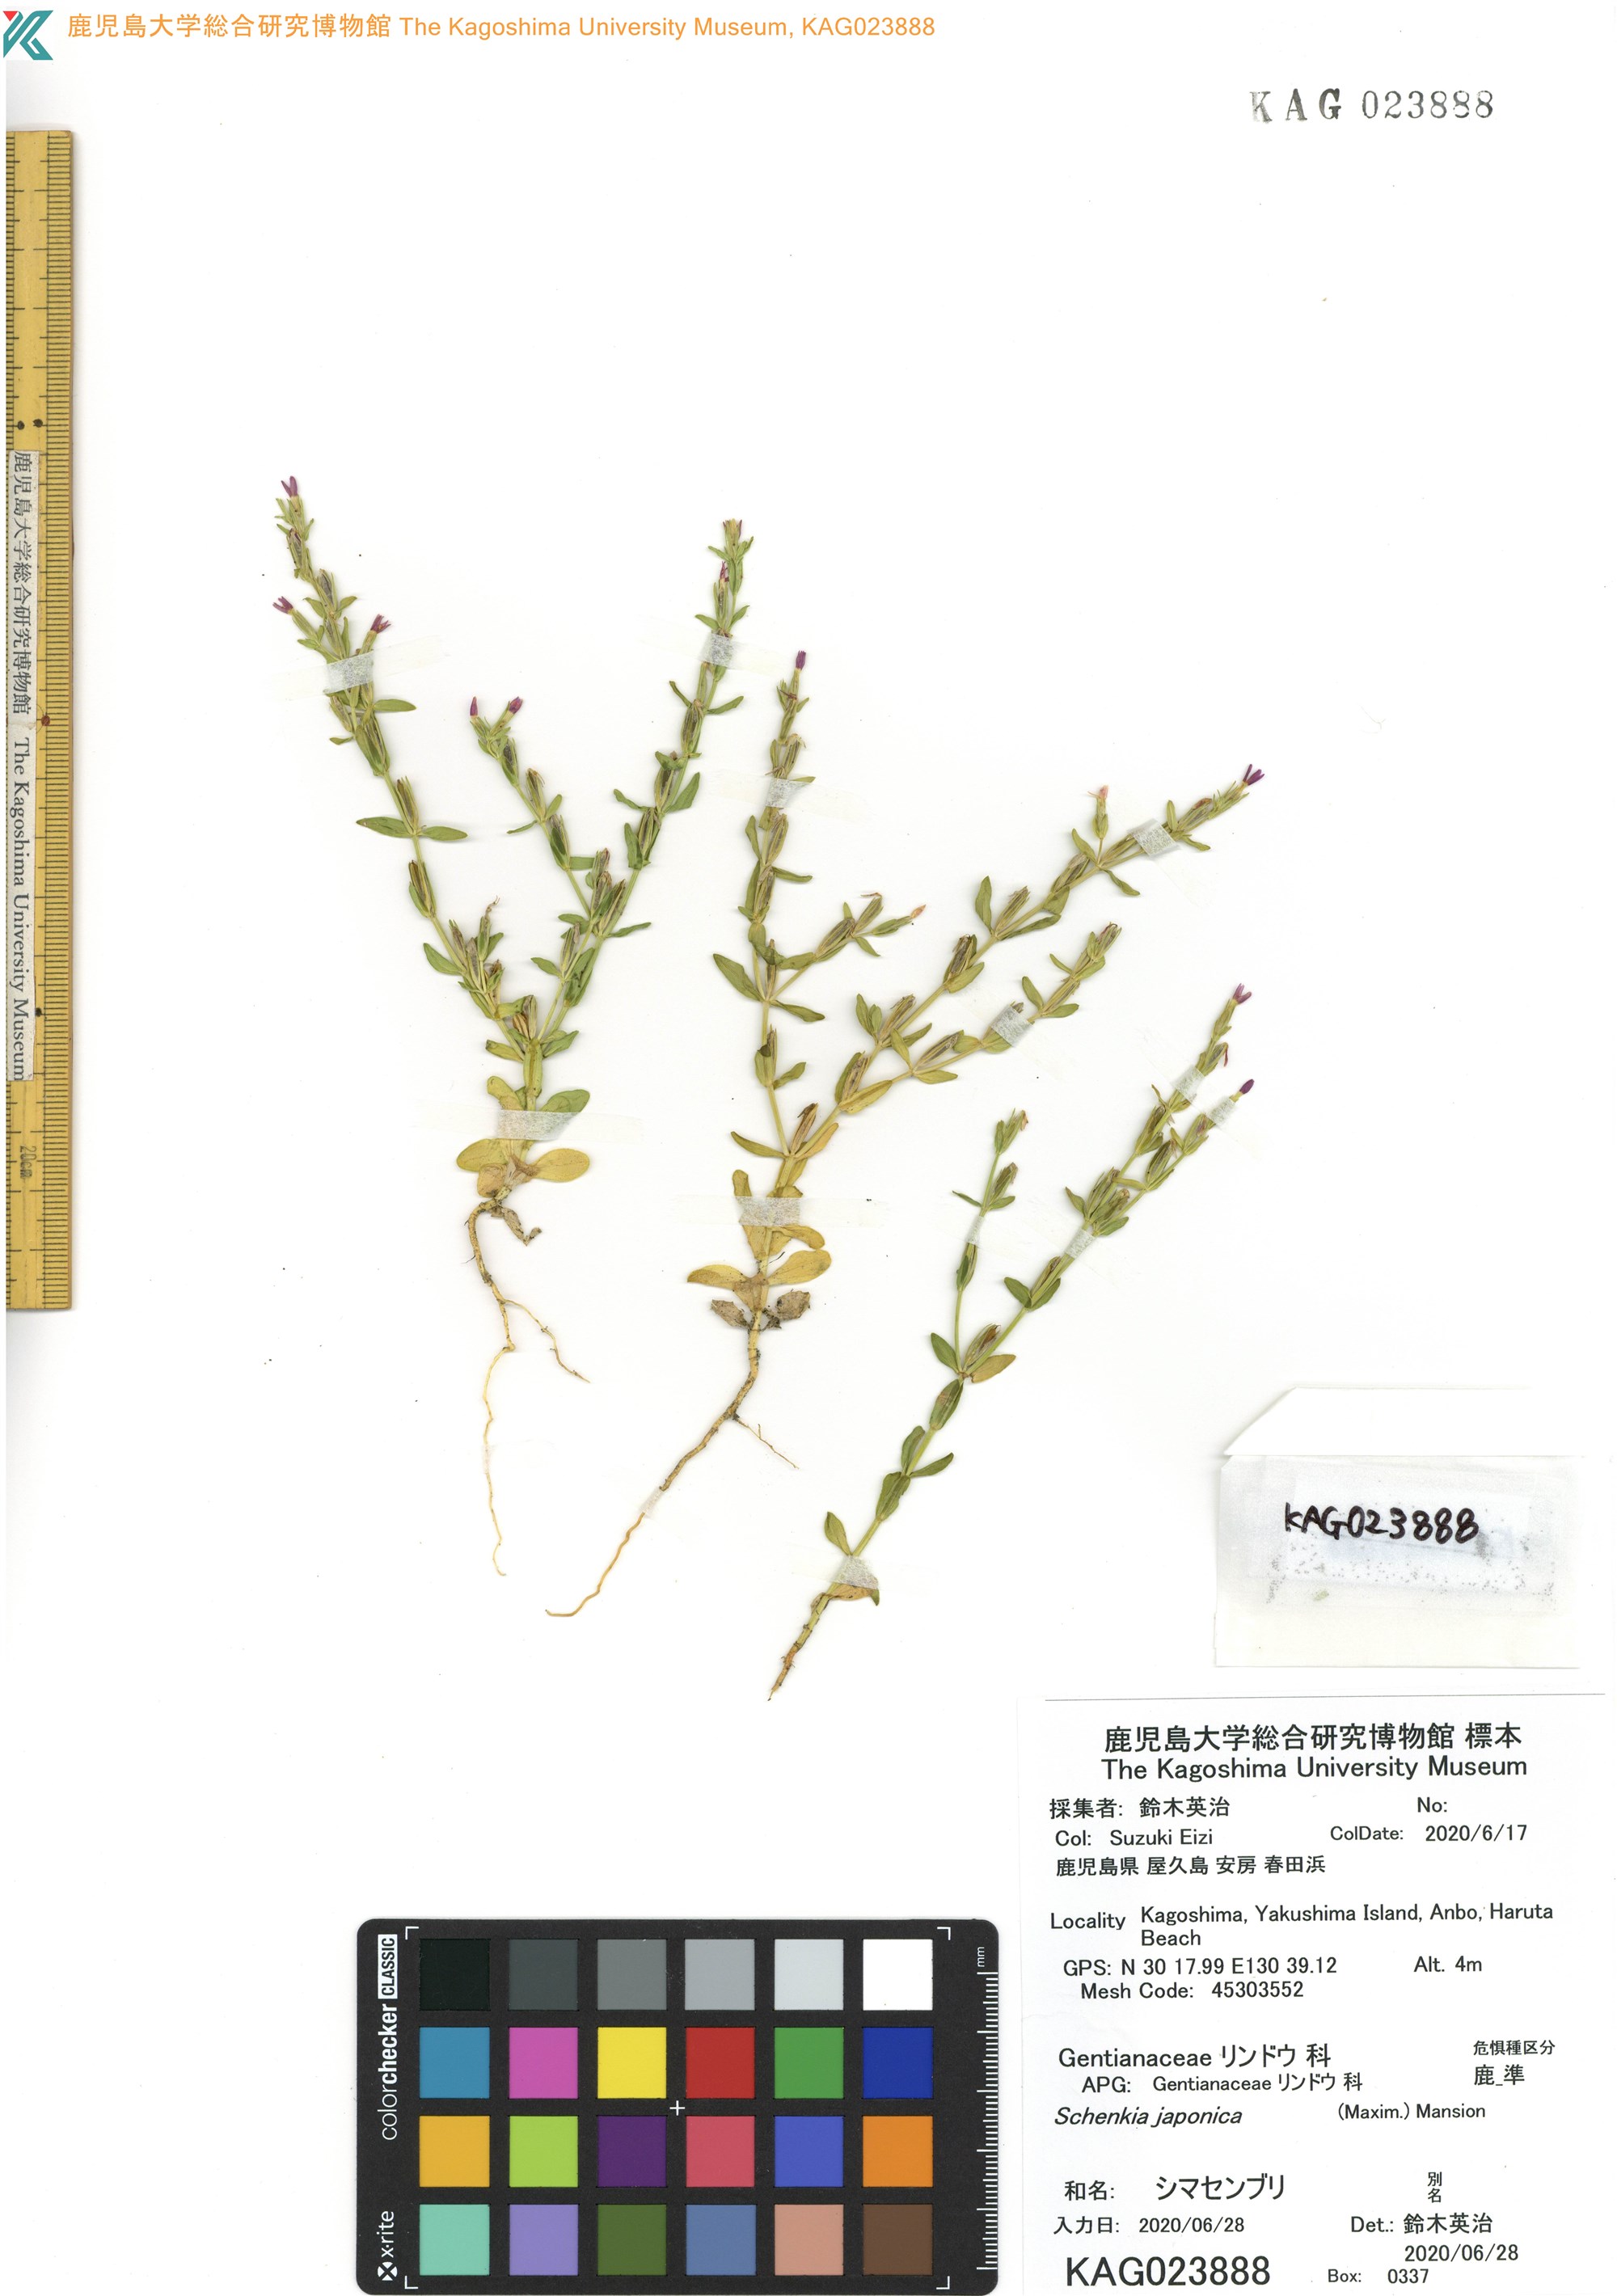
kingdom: Plantae
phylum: Tracheophyta
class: Magnoliopsida
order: Gentianales
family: Gentianaceae
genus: Schenkia
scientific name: Schenkia japonica
